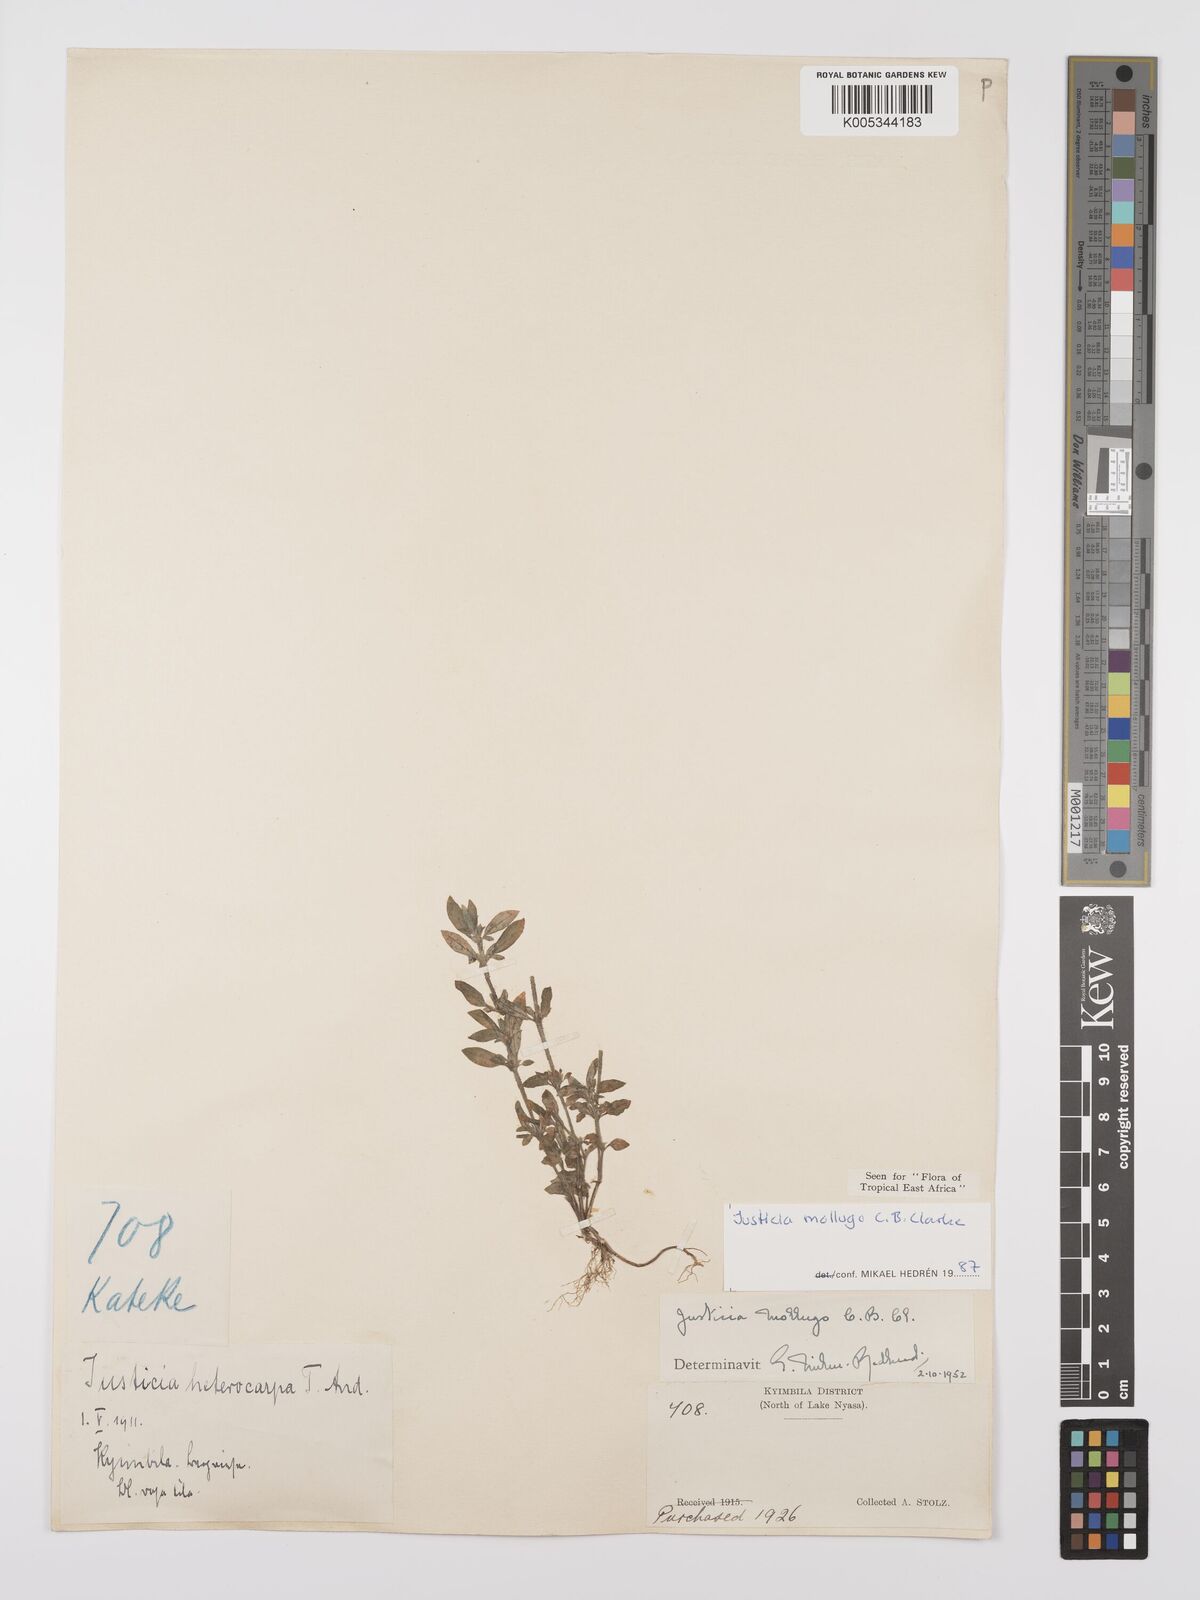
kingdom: Plantae
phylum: Tracheophyta
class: Magnoliopsida
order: Lamiales
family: Acanthaceae
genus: Justicia
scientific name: Justicia mollugo
